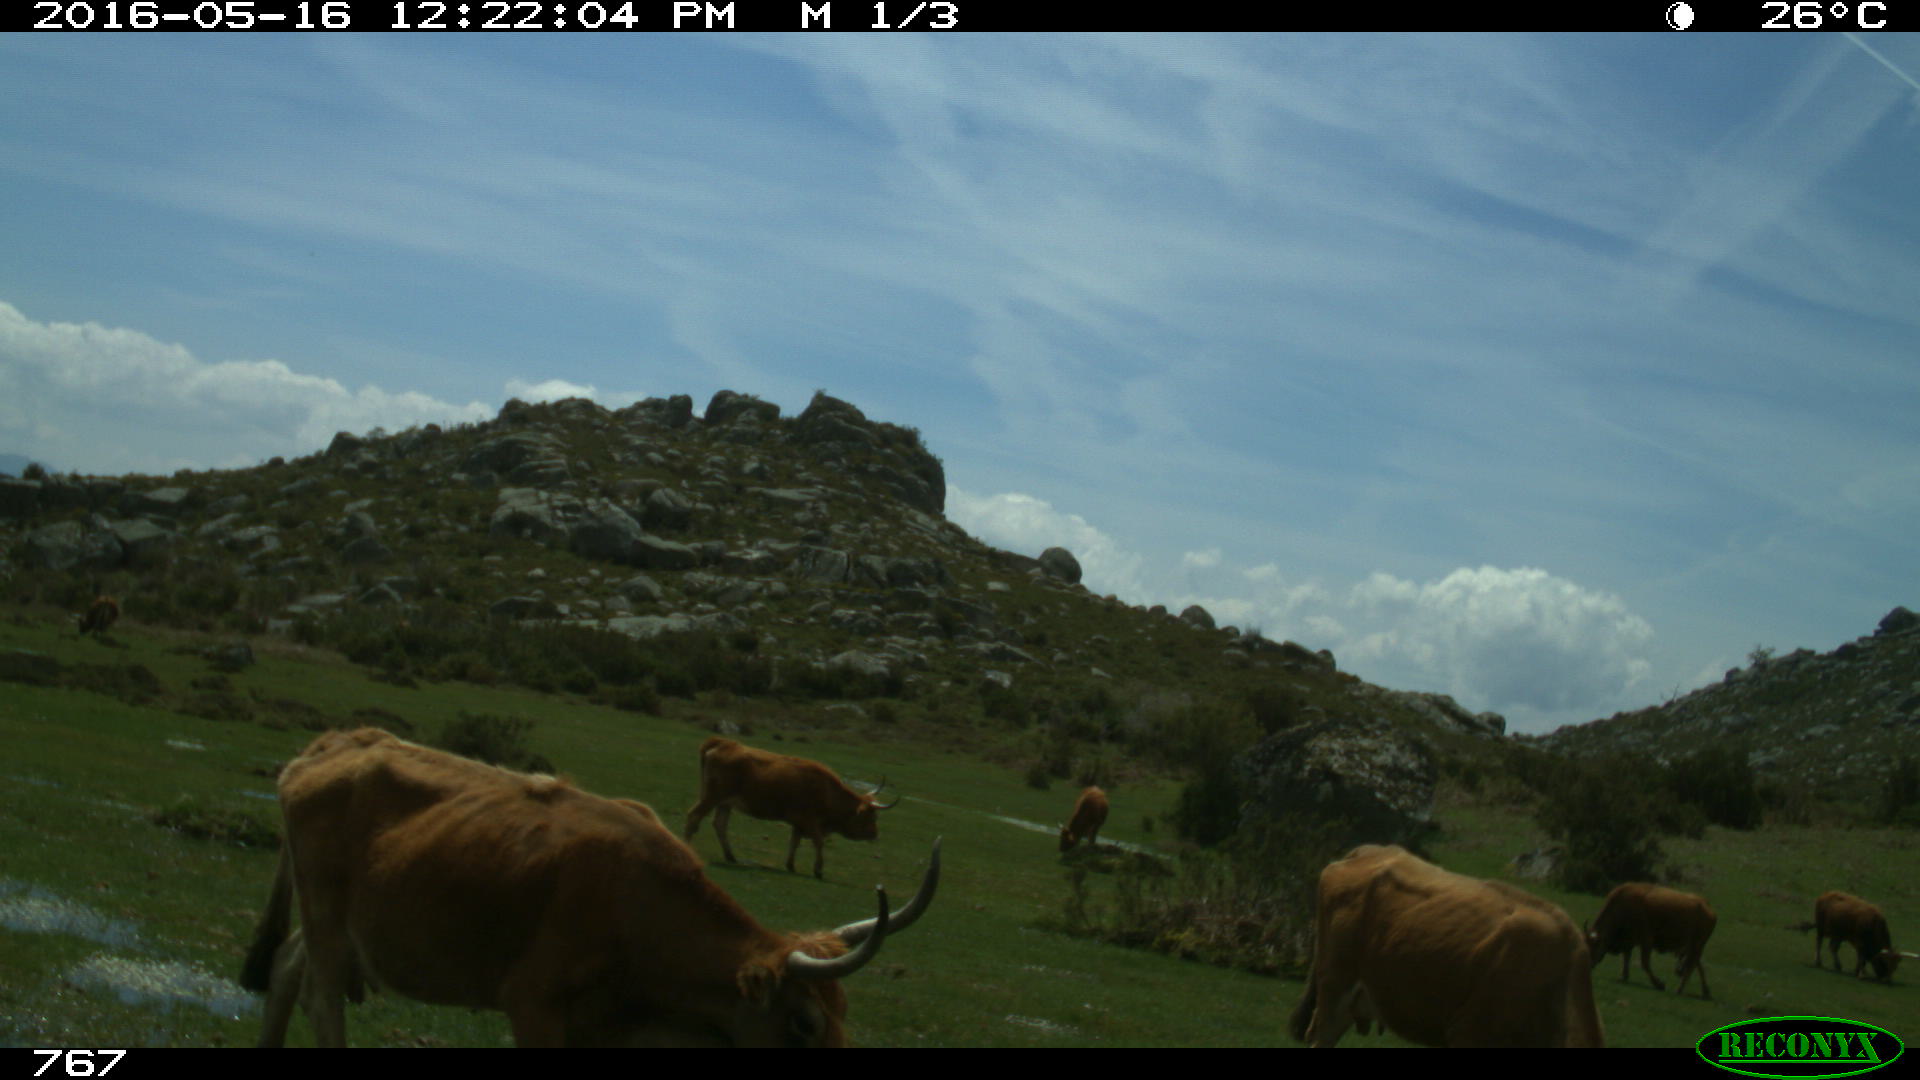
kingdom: Animalia
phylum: Chordata
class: Mammalia
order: Artiodactyla
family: Bovidae
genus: Bos
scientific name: Bos taurus
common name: Domesticated cattle
